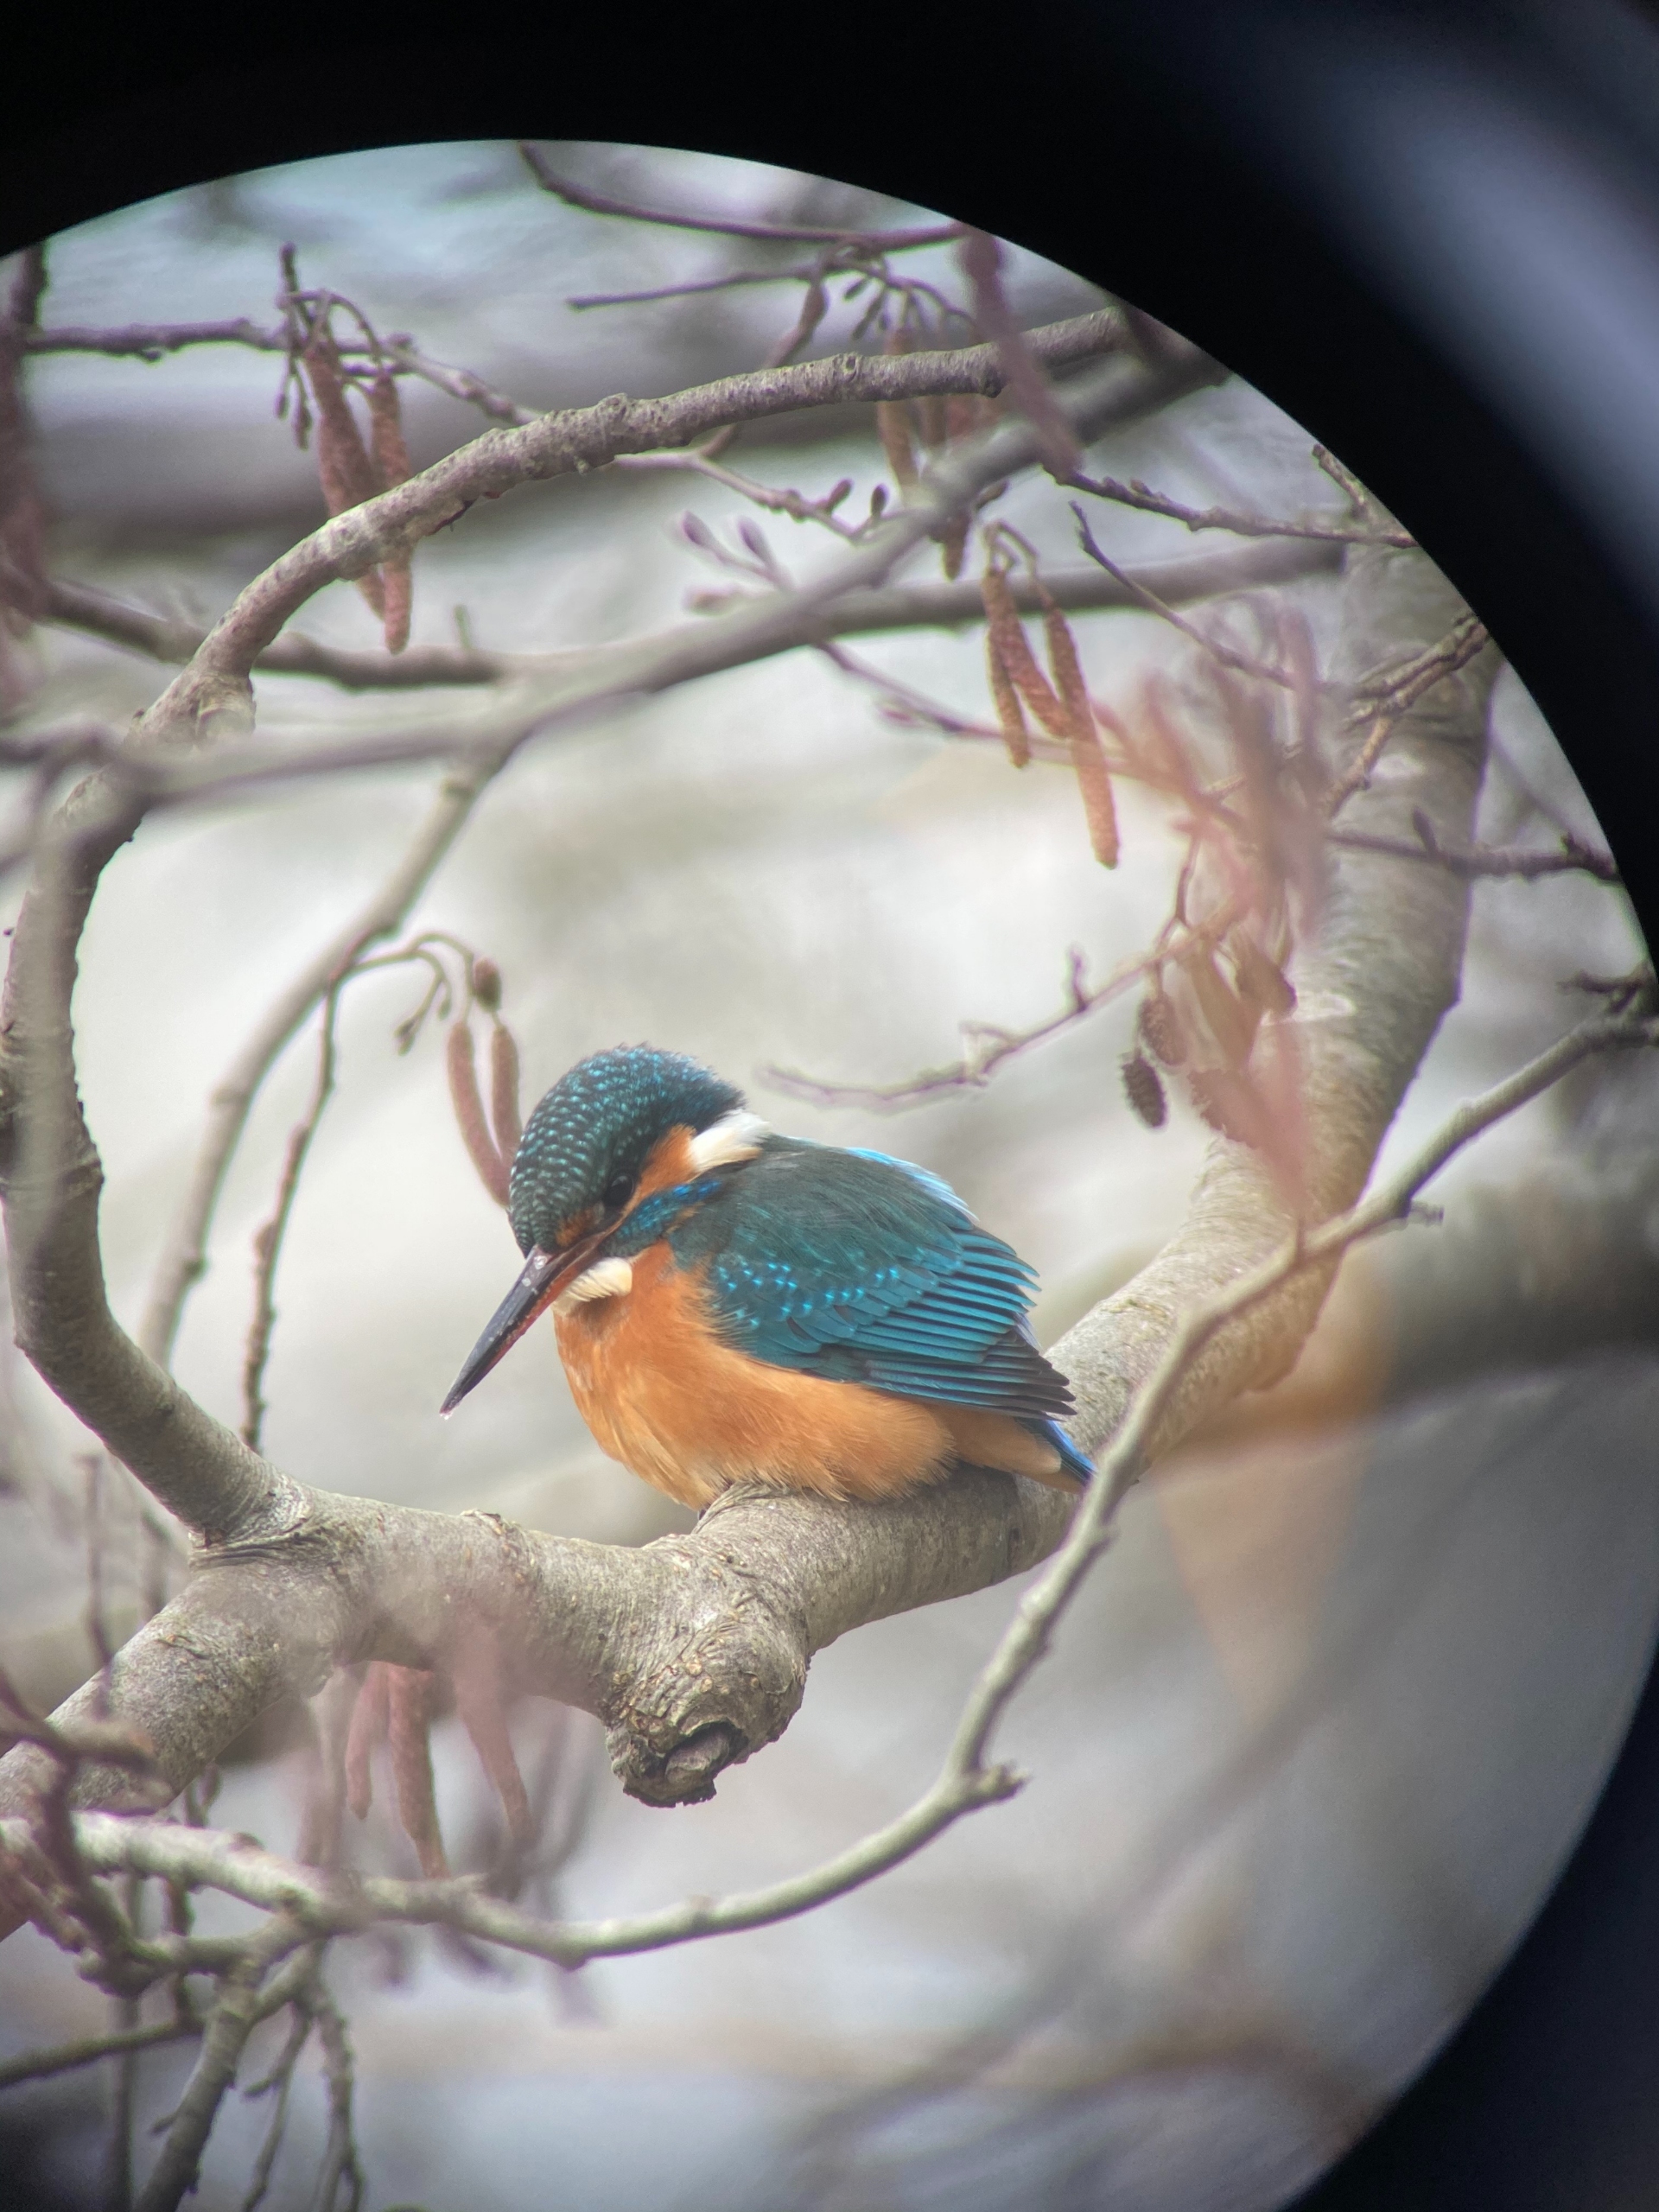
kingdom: Animalia
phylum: Chordata
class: Aves
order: Coraciiformes
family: Alcedinidae
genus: Alcedo
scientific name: Alcedo atthis
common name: Isfugl
